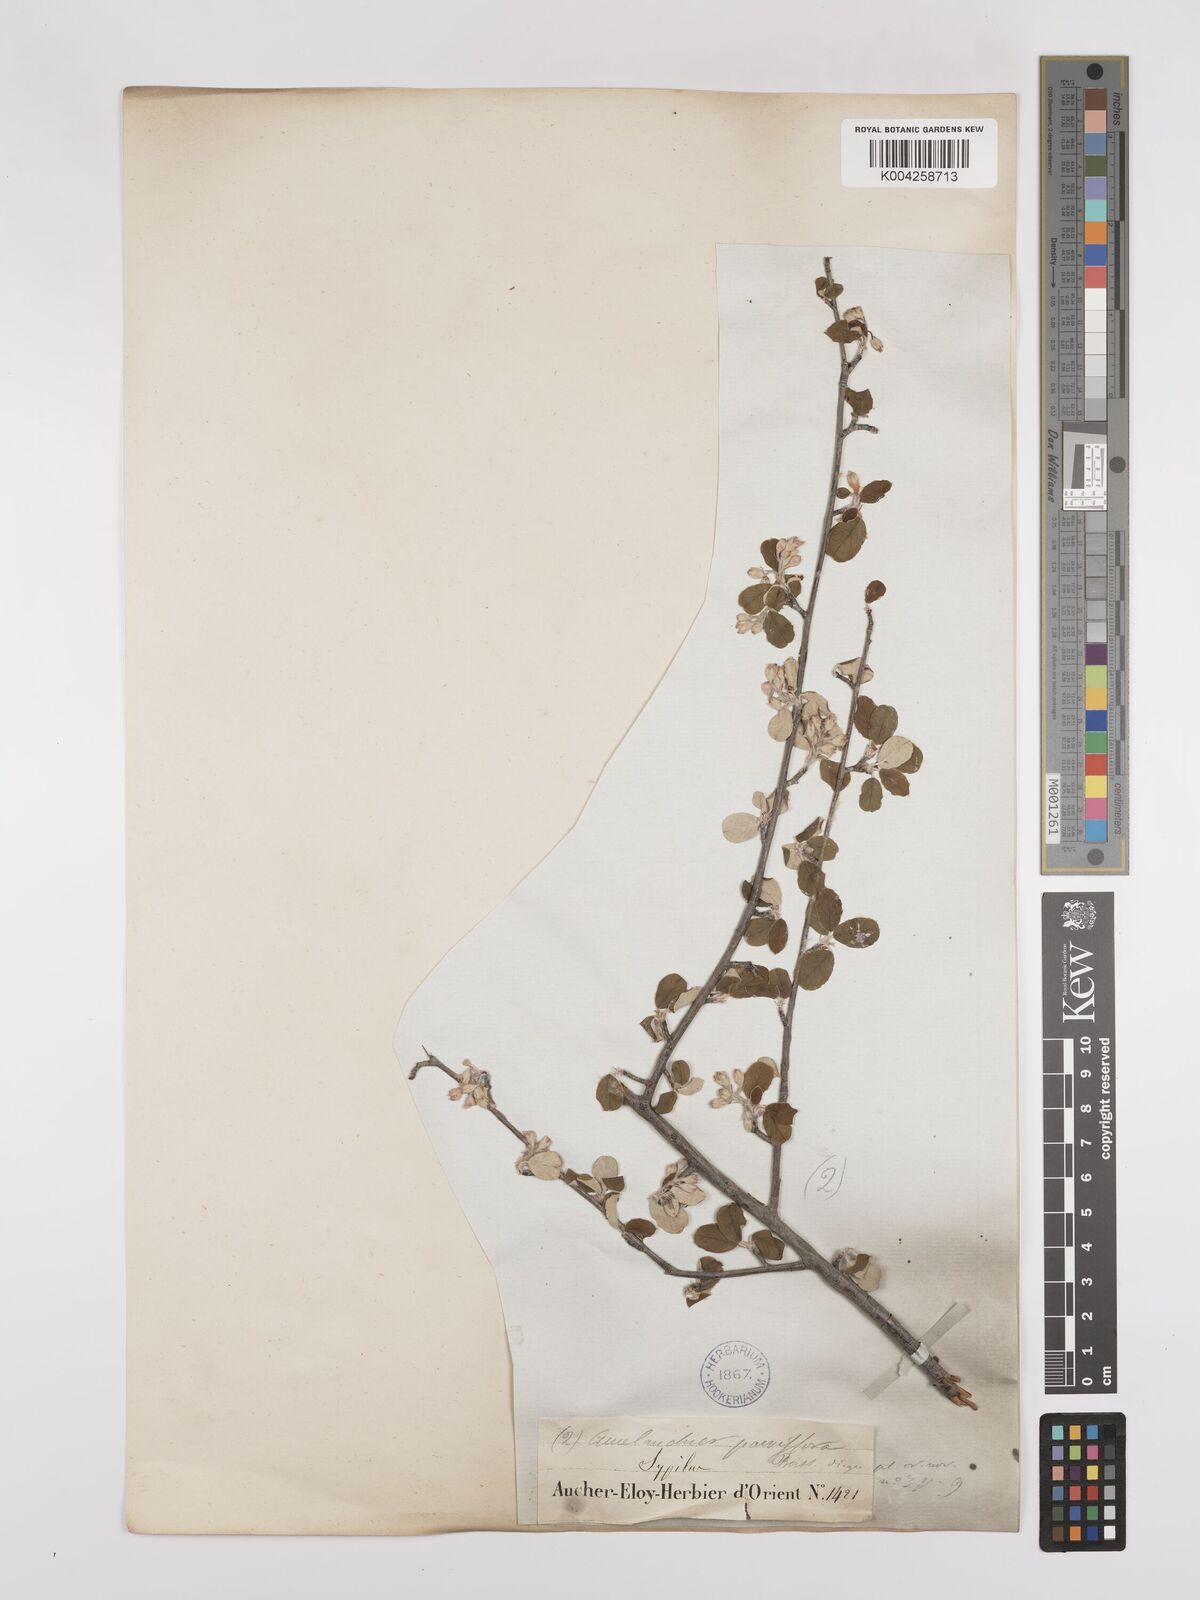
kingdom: Plantae
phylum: Tracheophyta
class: Magnoliopsida
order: Rosales
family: Rosaceae
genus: Amelanchier
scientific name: Amelanchier parviflora
